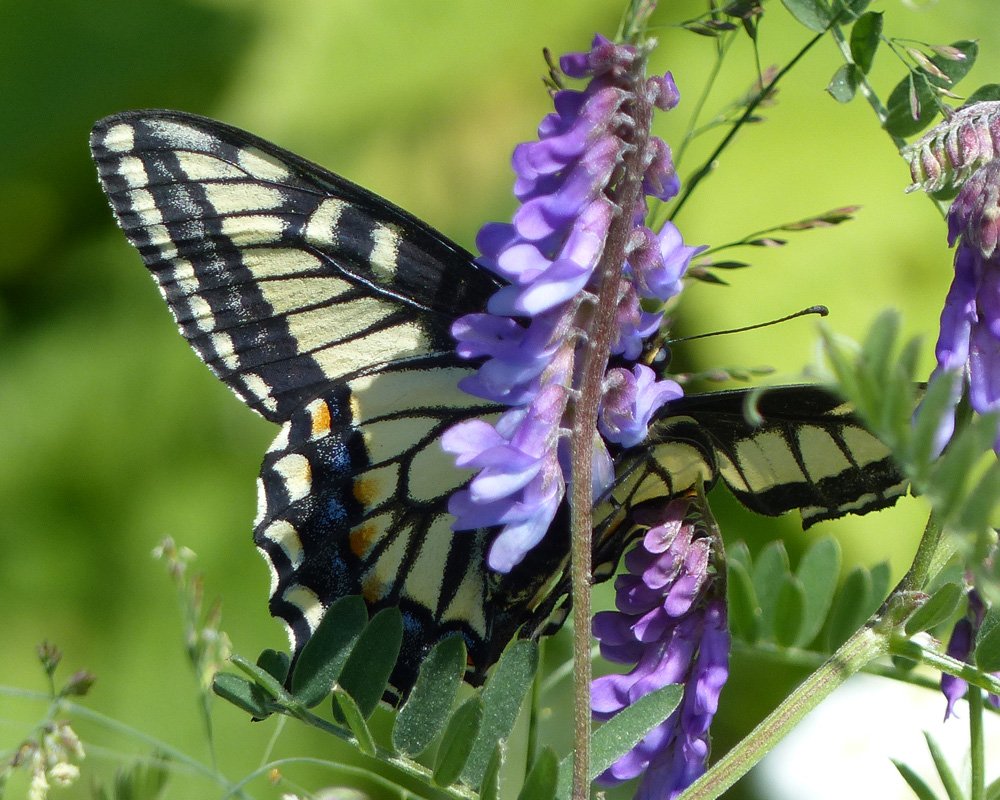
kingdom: Animalia
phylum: Arthropoda
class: Insecta
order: Lepidoptera
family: Papilionidae
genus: Papilio
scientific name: Papilio zelicaon
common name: Anise Swallowtail
